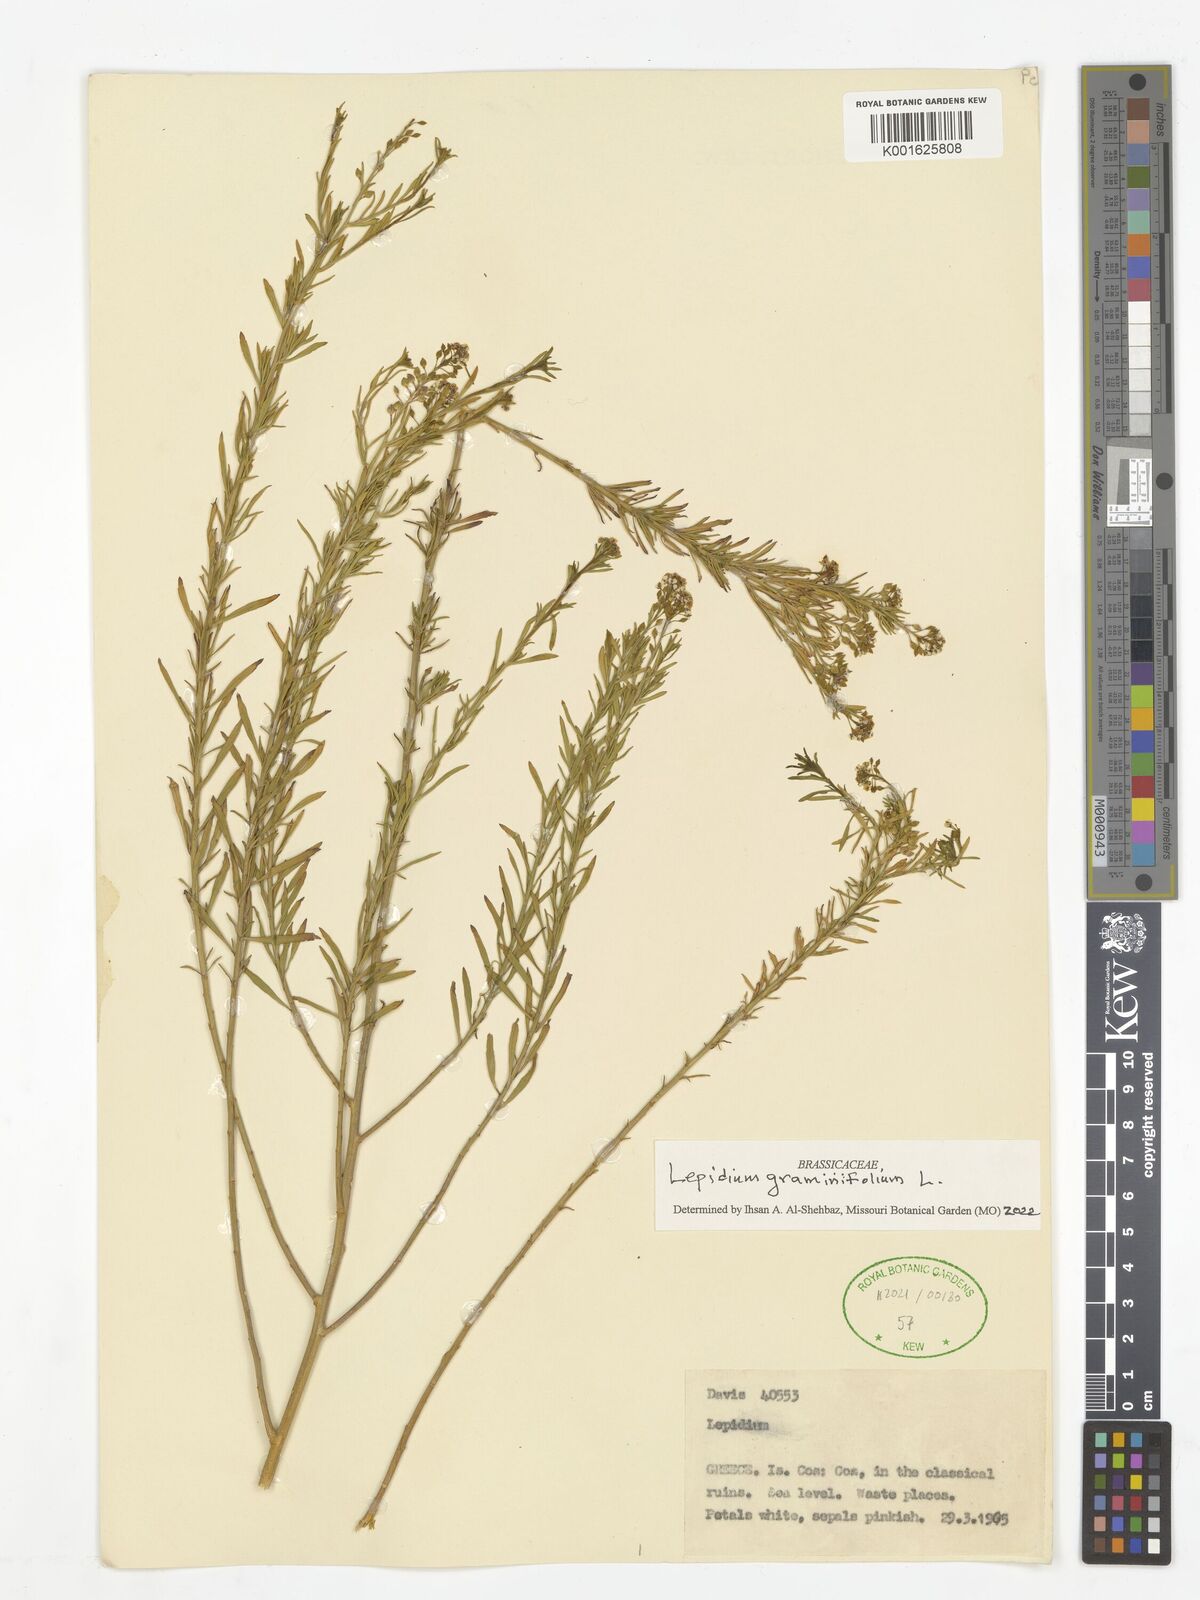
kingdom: Plantae
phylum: Tracheophyta
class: Magnoliopsida
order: Brassicales
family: Brassicaceae
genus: Lepidium
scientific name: Lepidium graminifolium
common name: Tall pepperwort
